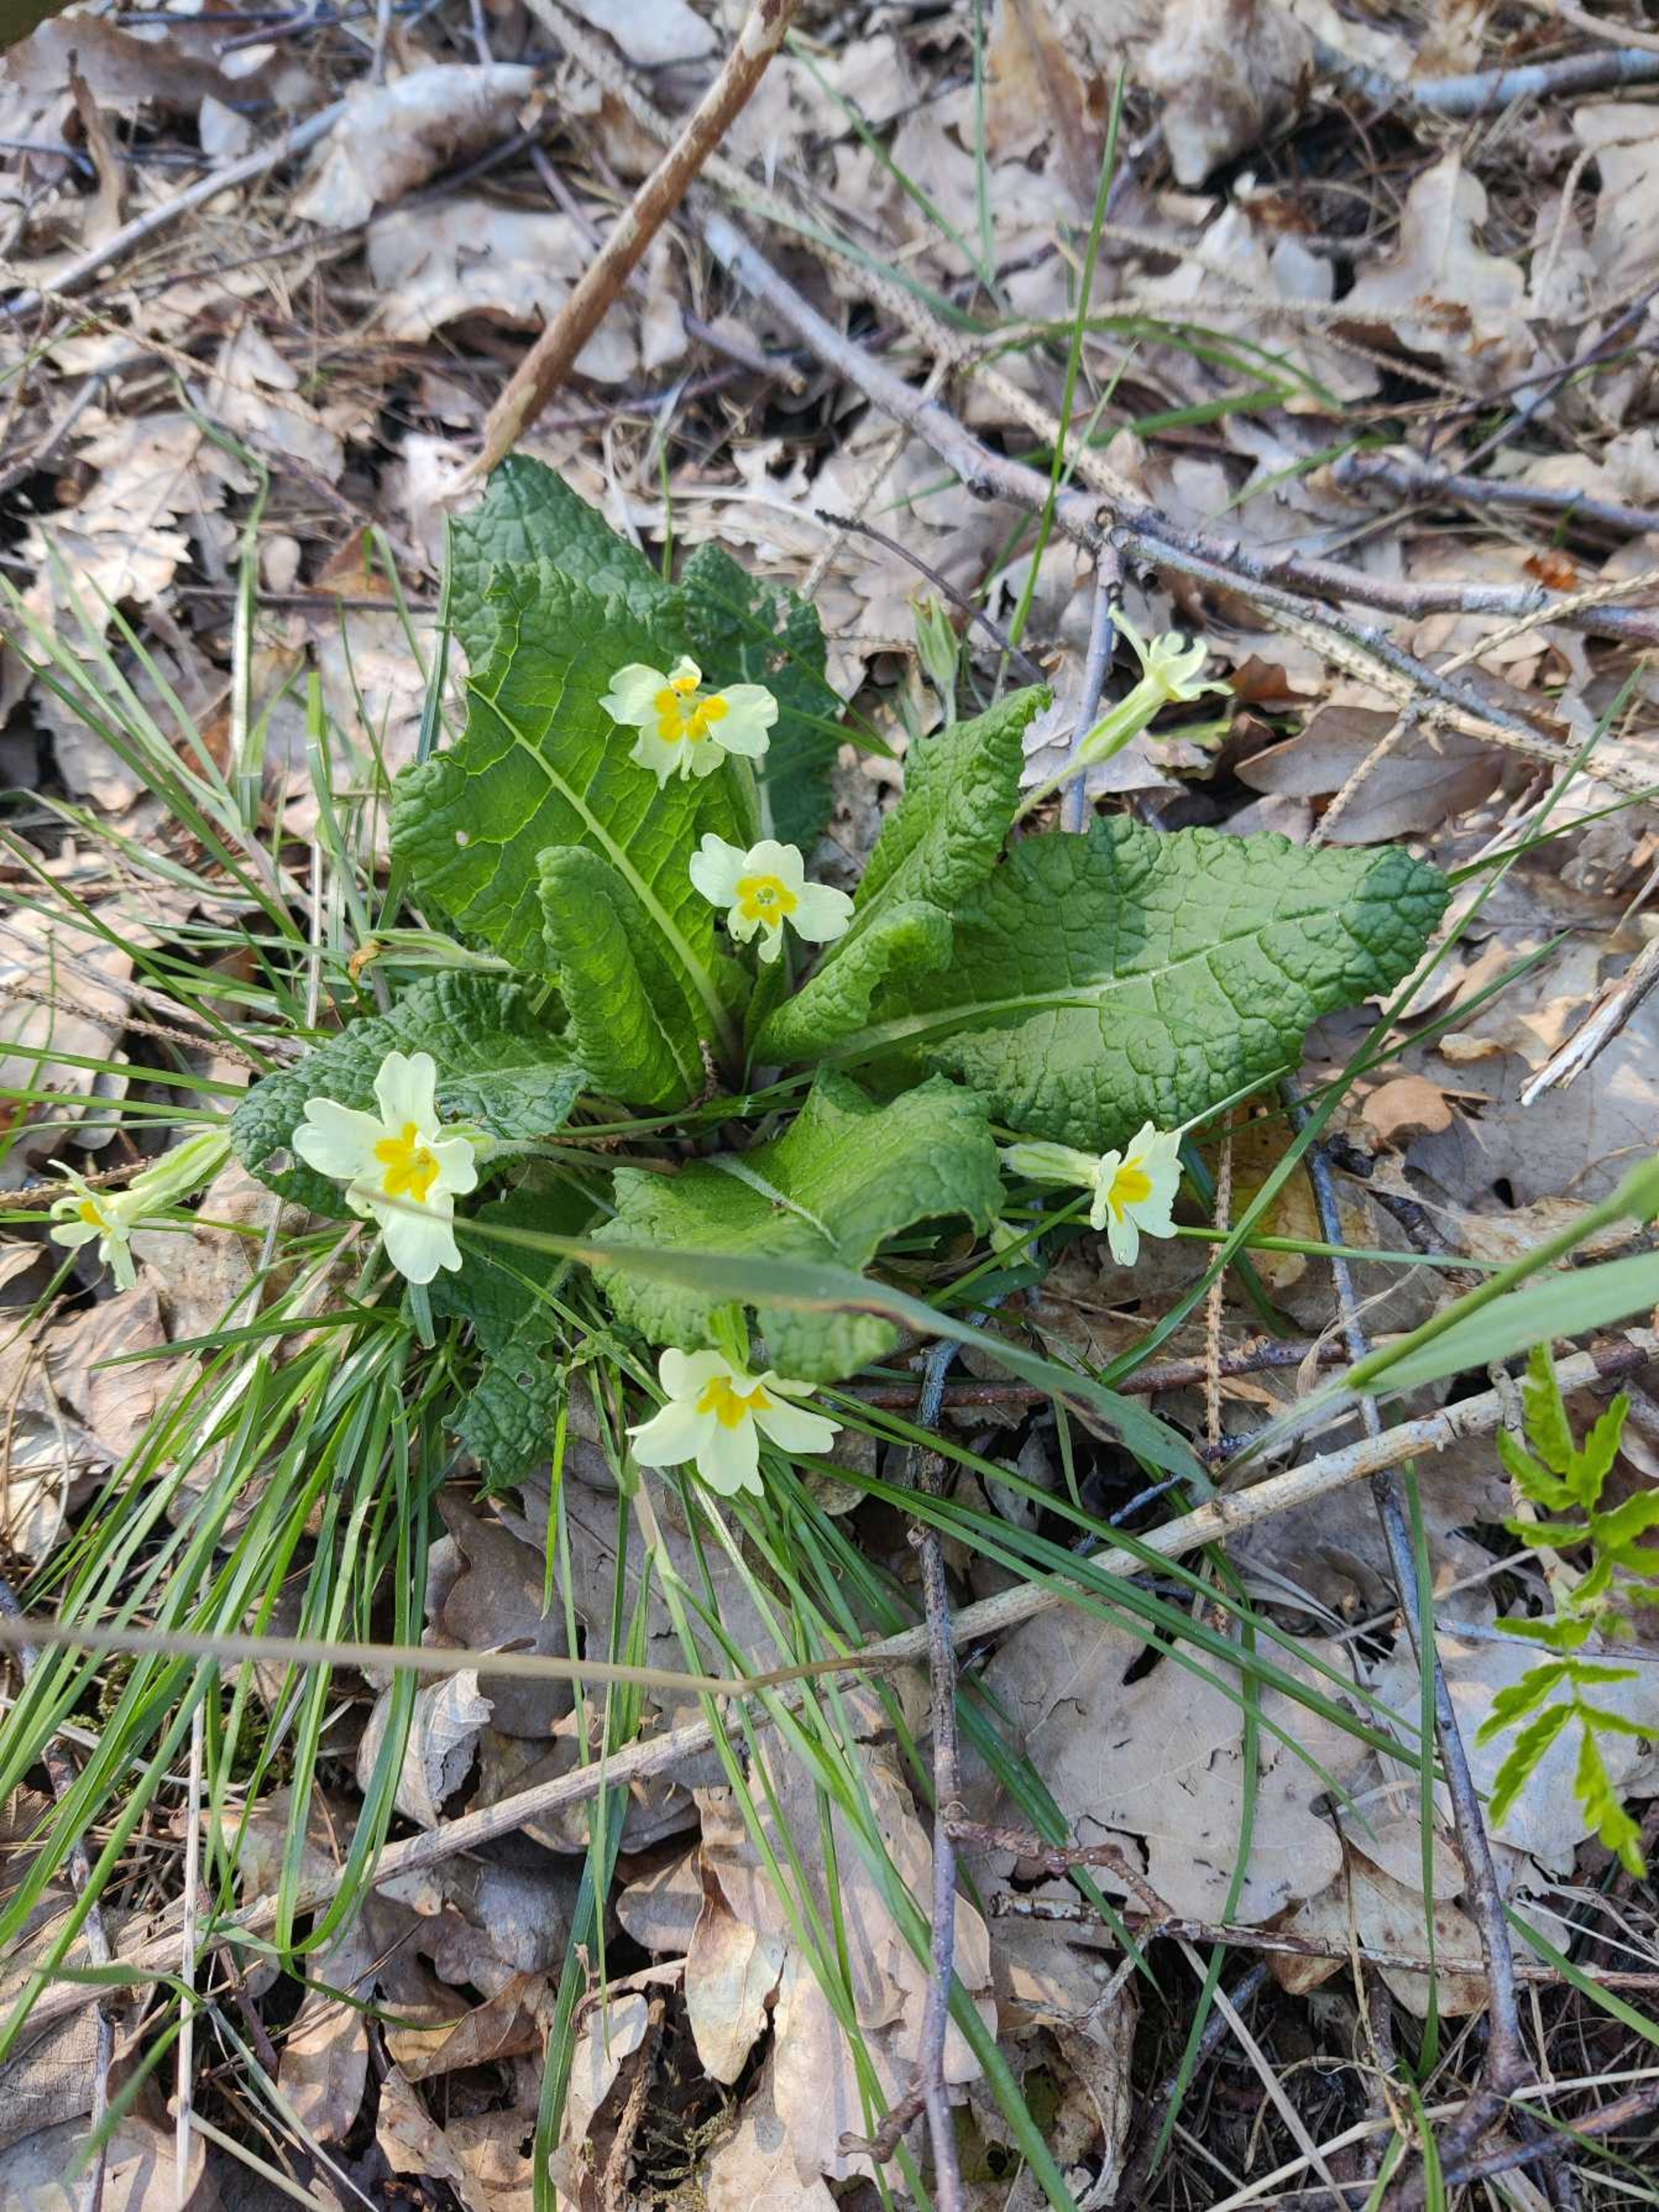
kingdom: Plantae
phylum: Tracheophyta
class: Magnoliopsida
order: Ericales
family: Primulaceae
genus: Primula
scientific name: Primula vulgaris
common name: Storblomstret kodriver
